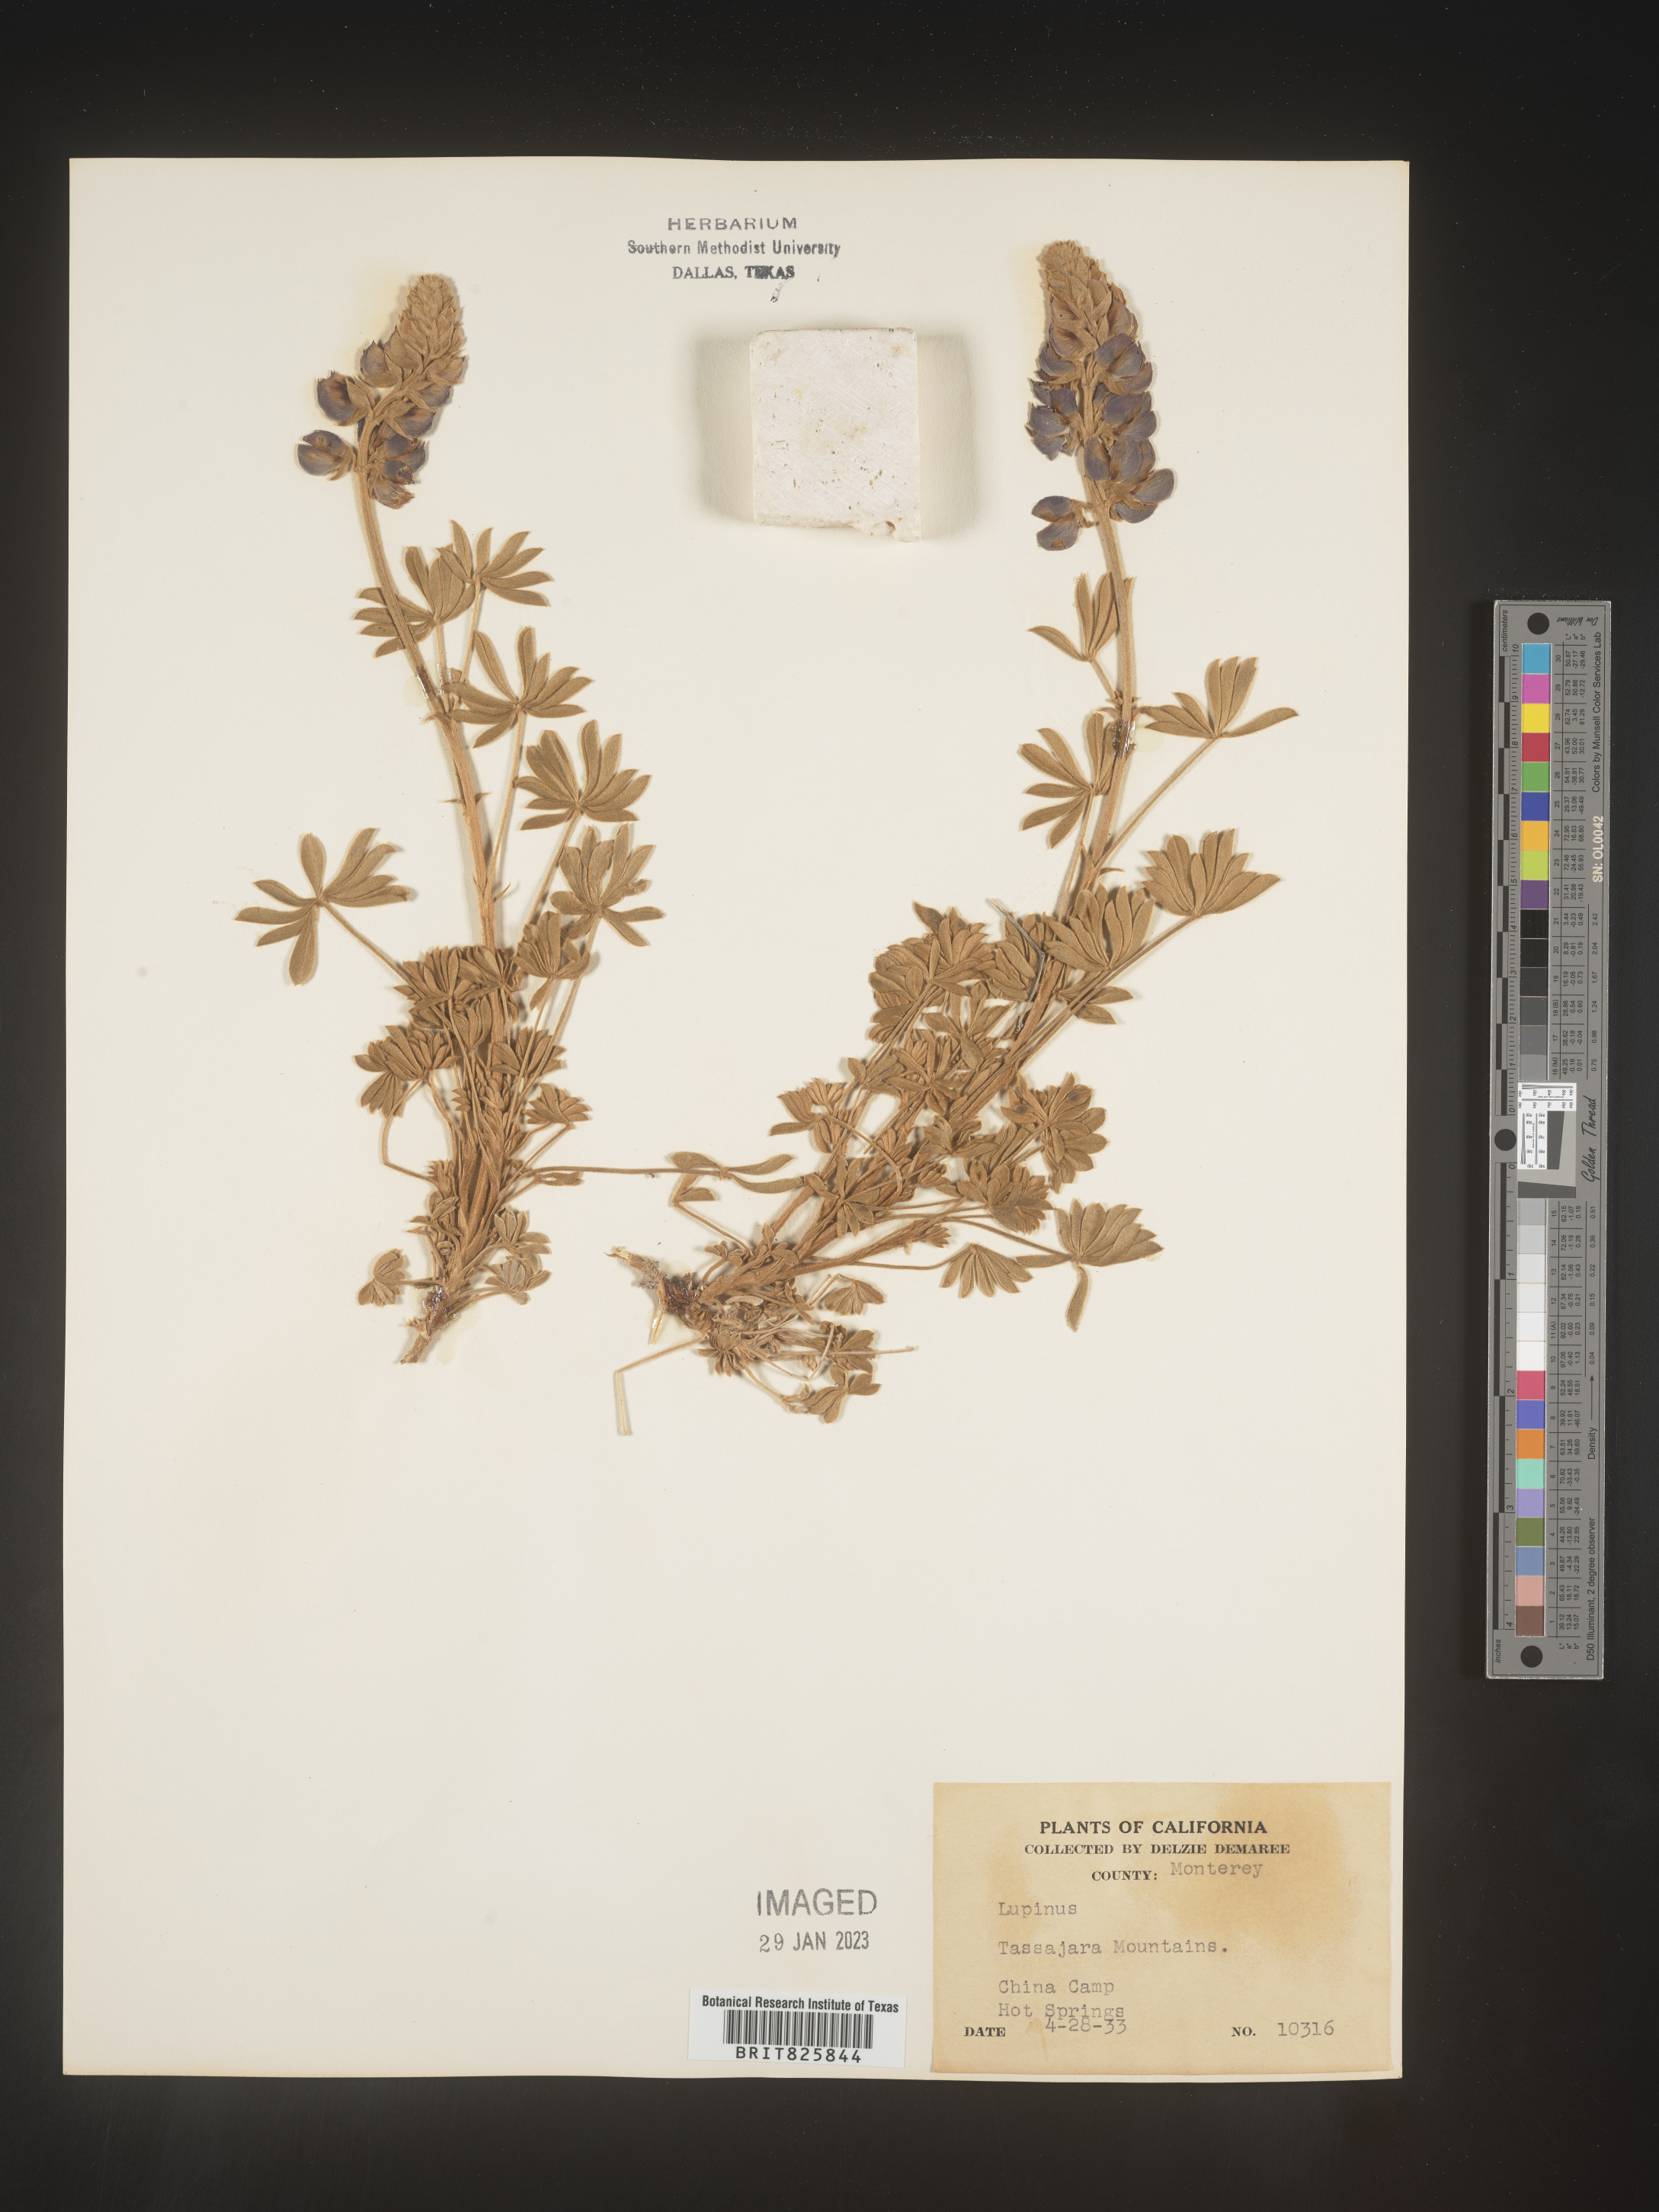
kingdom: Plantae
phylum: Tracheophyta
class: Magnoliopsida
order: Fabales
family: Fabaceae
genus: Lupinus
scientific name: Lupinus
